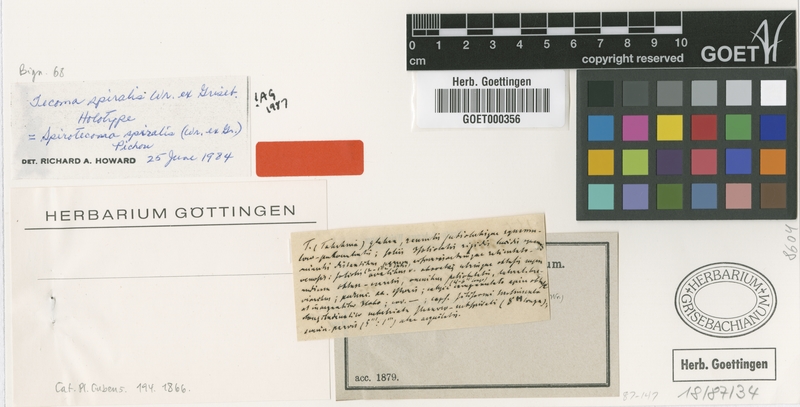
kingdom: Plantae
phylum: Tracheophyta
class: Magnoliopsida
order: Lamiales
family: Bignoniaceae
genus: Spirotecoma
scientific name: Spirotecoma spiralis
